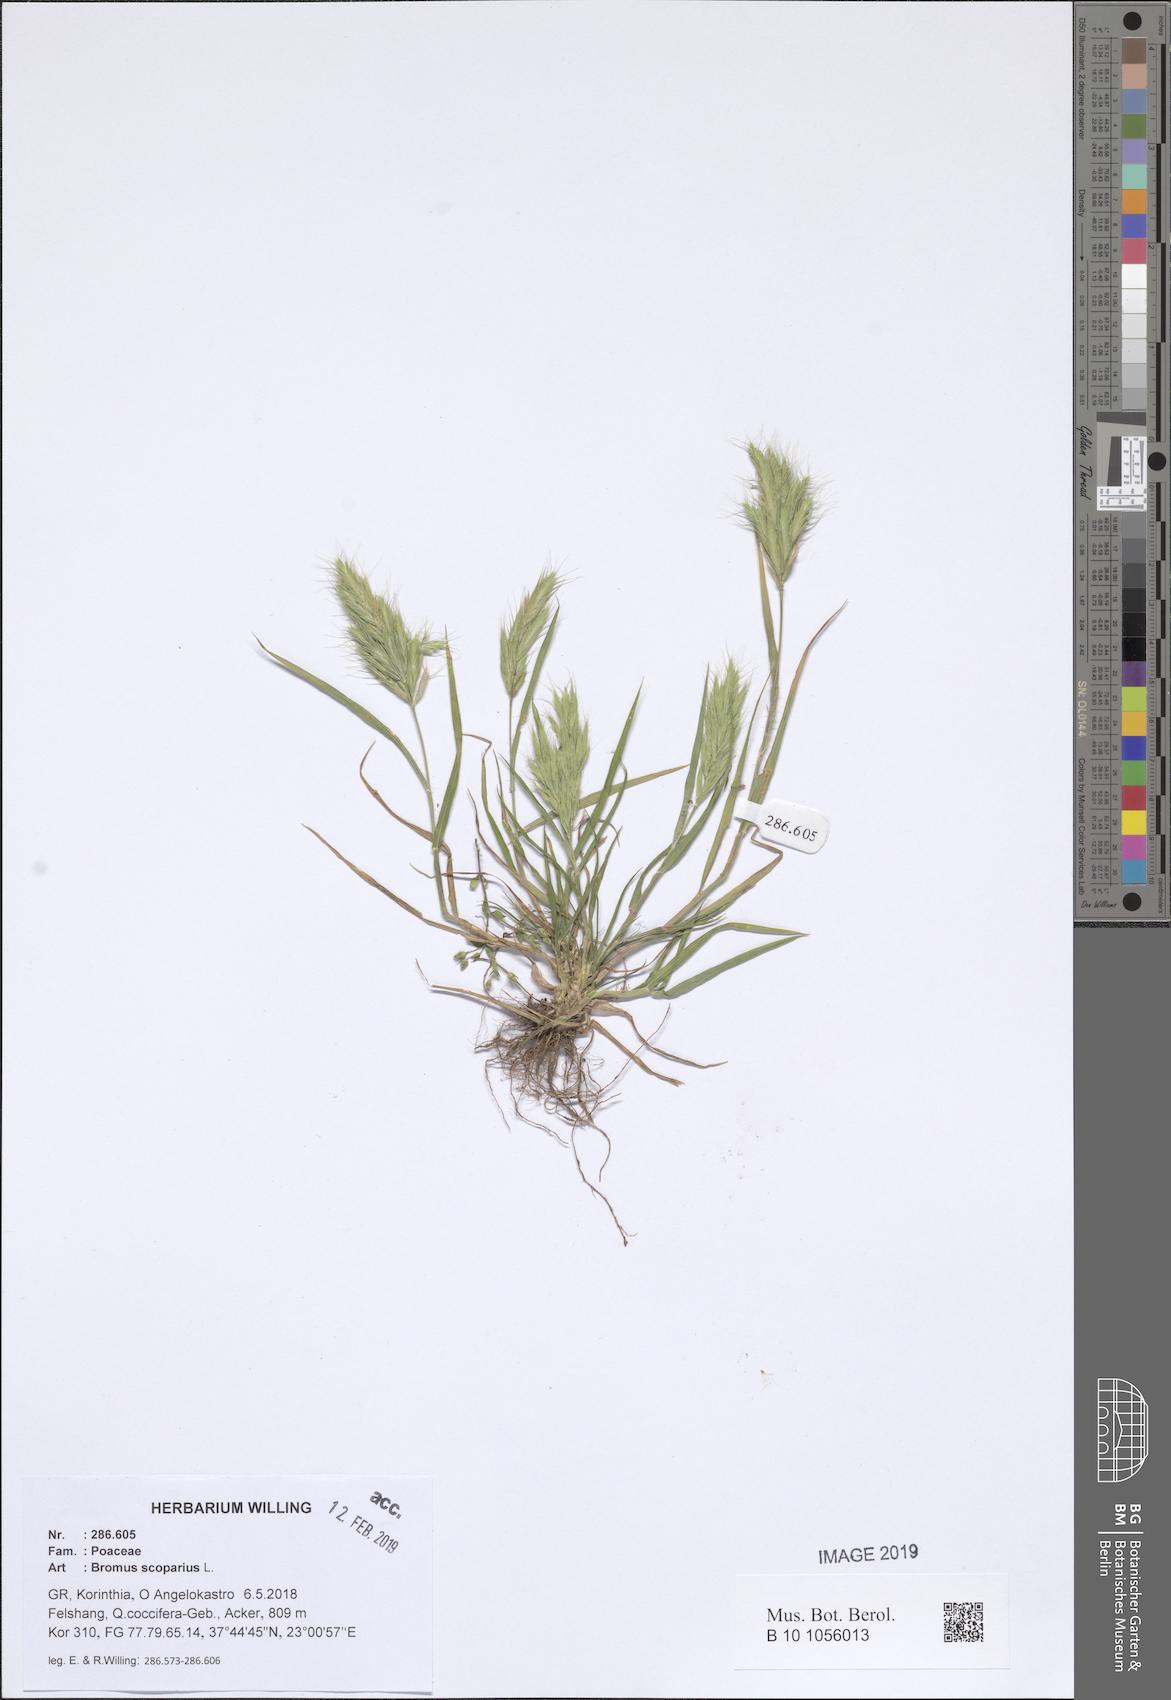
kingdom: Plantae
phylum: Tracheophyta
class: Liliopsida
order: Poales
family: Poaceae
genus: Bromus
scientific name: Bromus scoparius
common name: Broom brome
